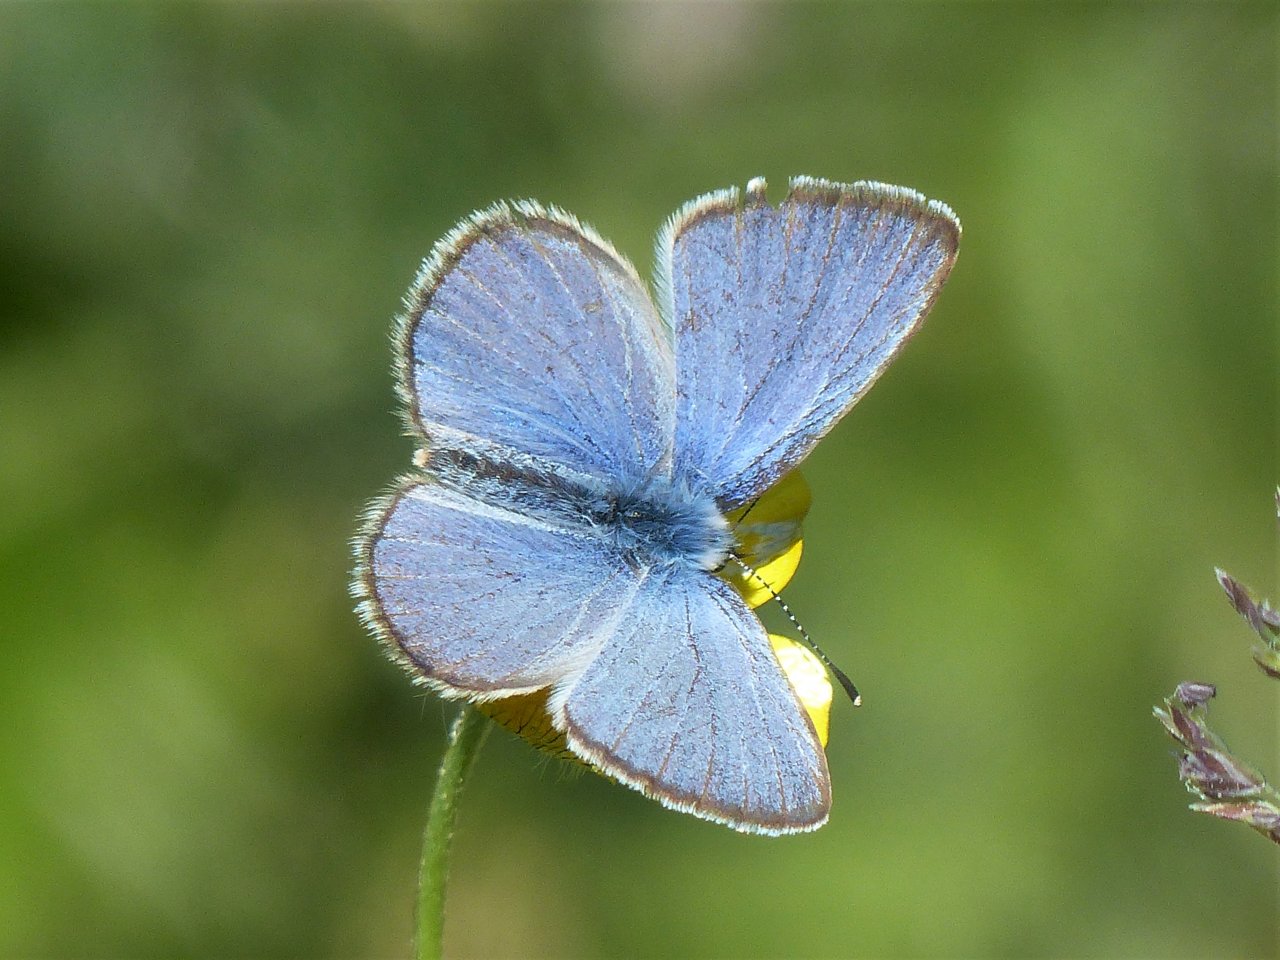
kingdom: Animalia
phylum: Arthropoda
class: Insecta
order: Lepidoptera
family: Lycaenidae
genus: Glaucopsyche
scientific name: Glaucopsyche lygdamus
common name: Silvery Blue
